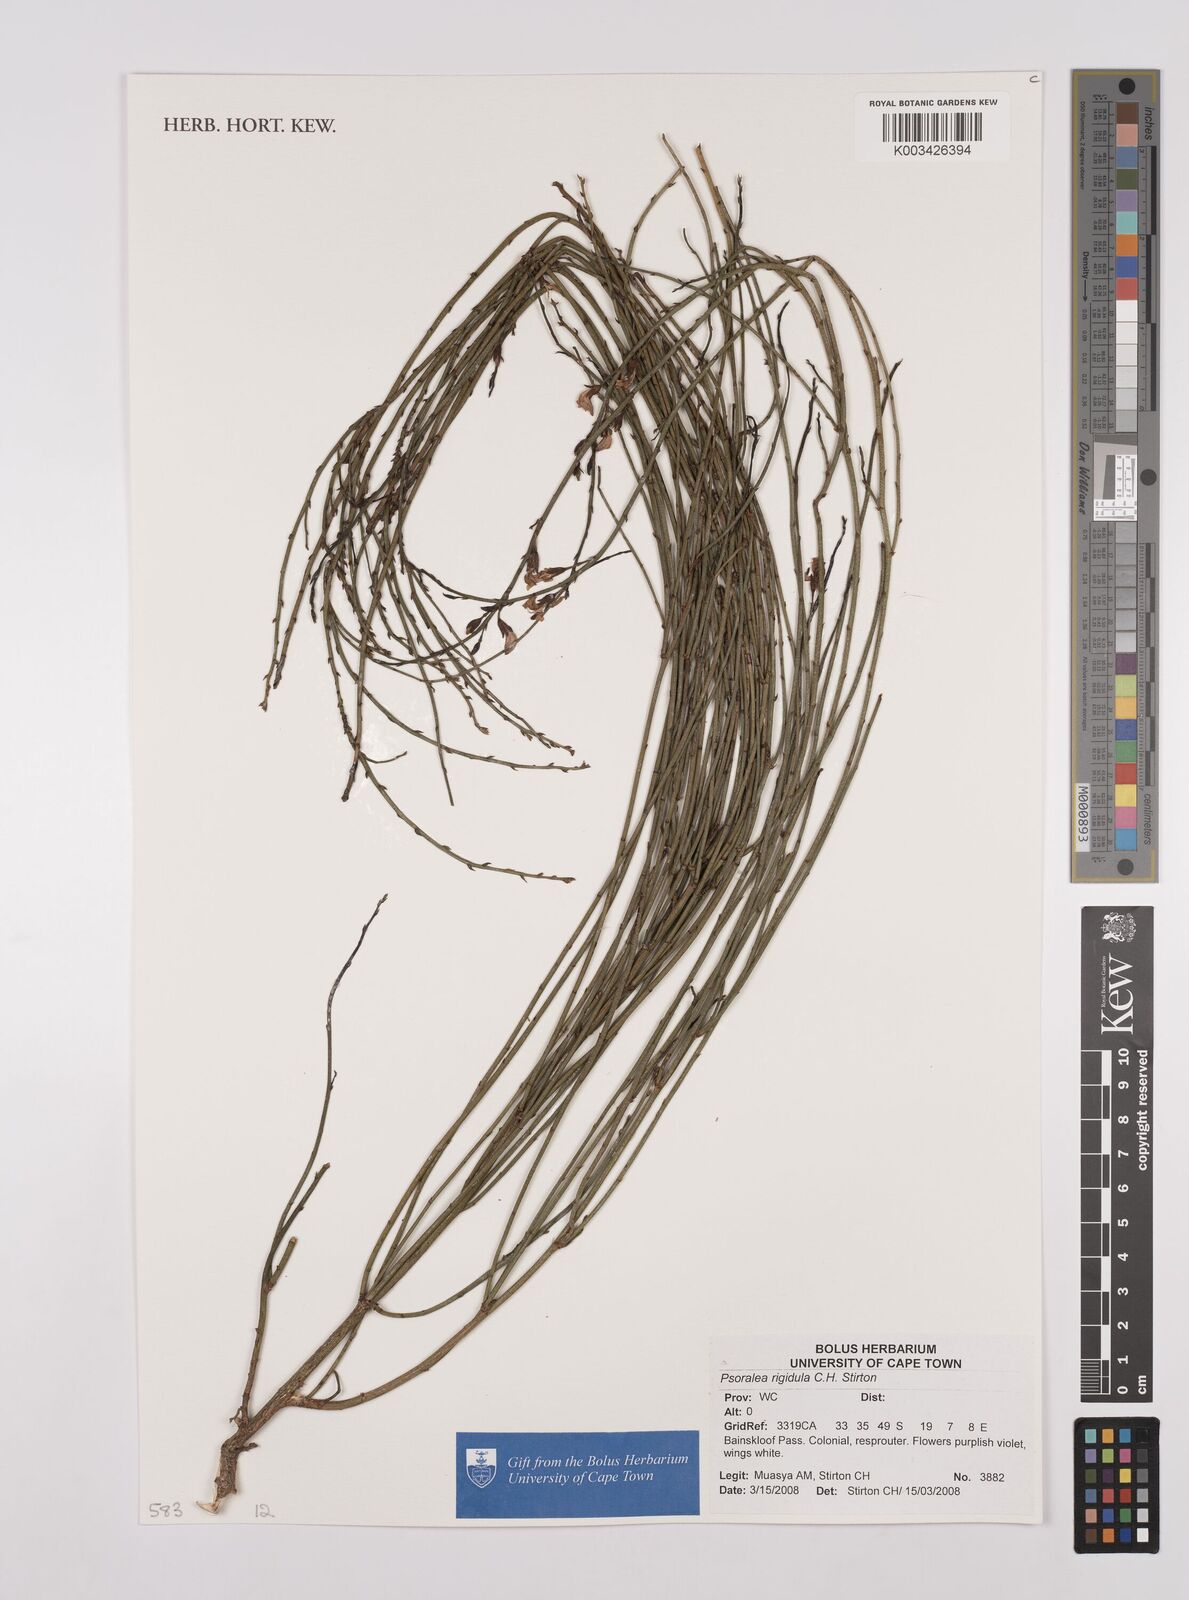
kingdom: Plantae
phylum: Tracheophyta
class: Magnoliopsida
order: Fabales
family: Fabaceae
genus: Psoralea
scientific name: Psoralea rigidula
